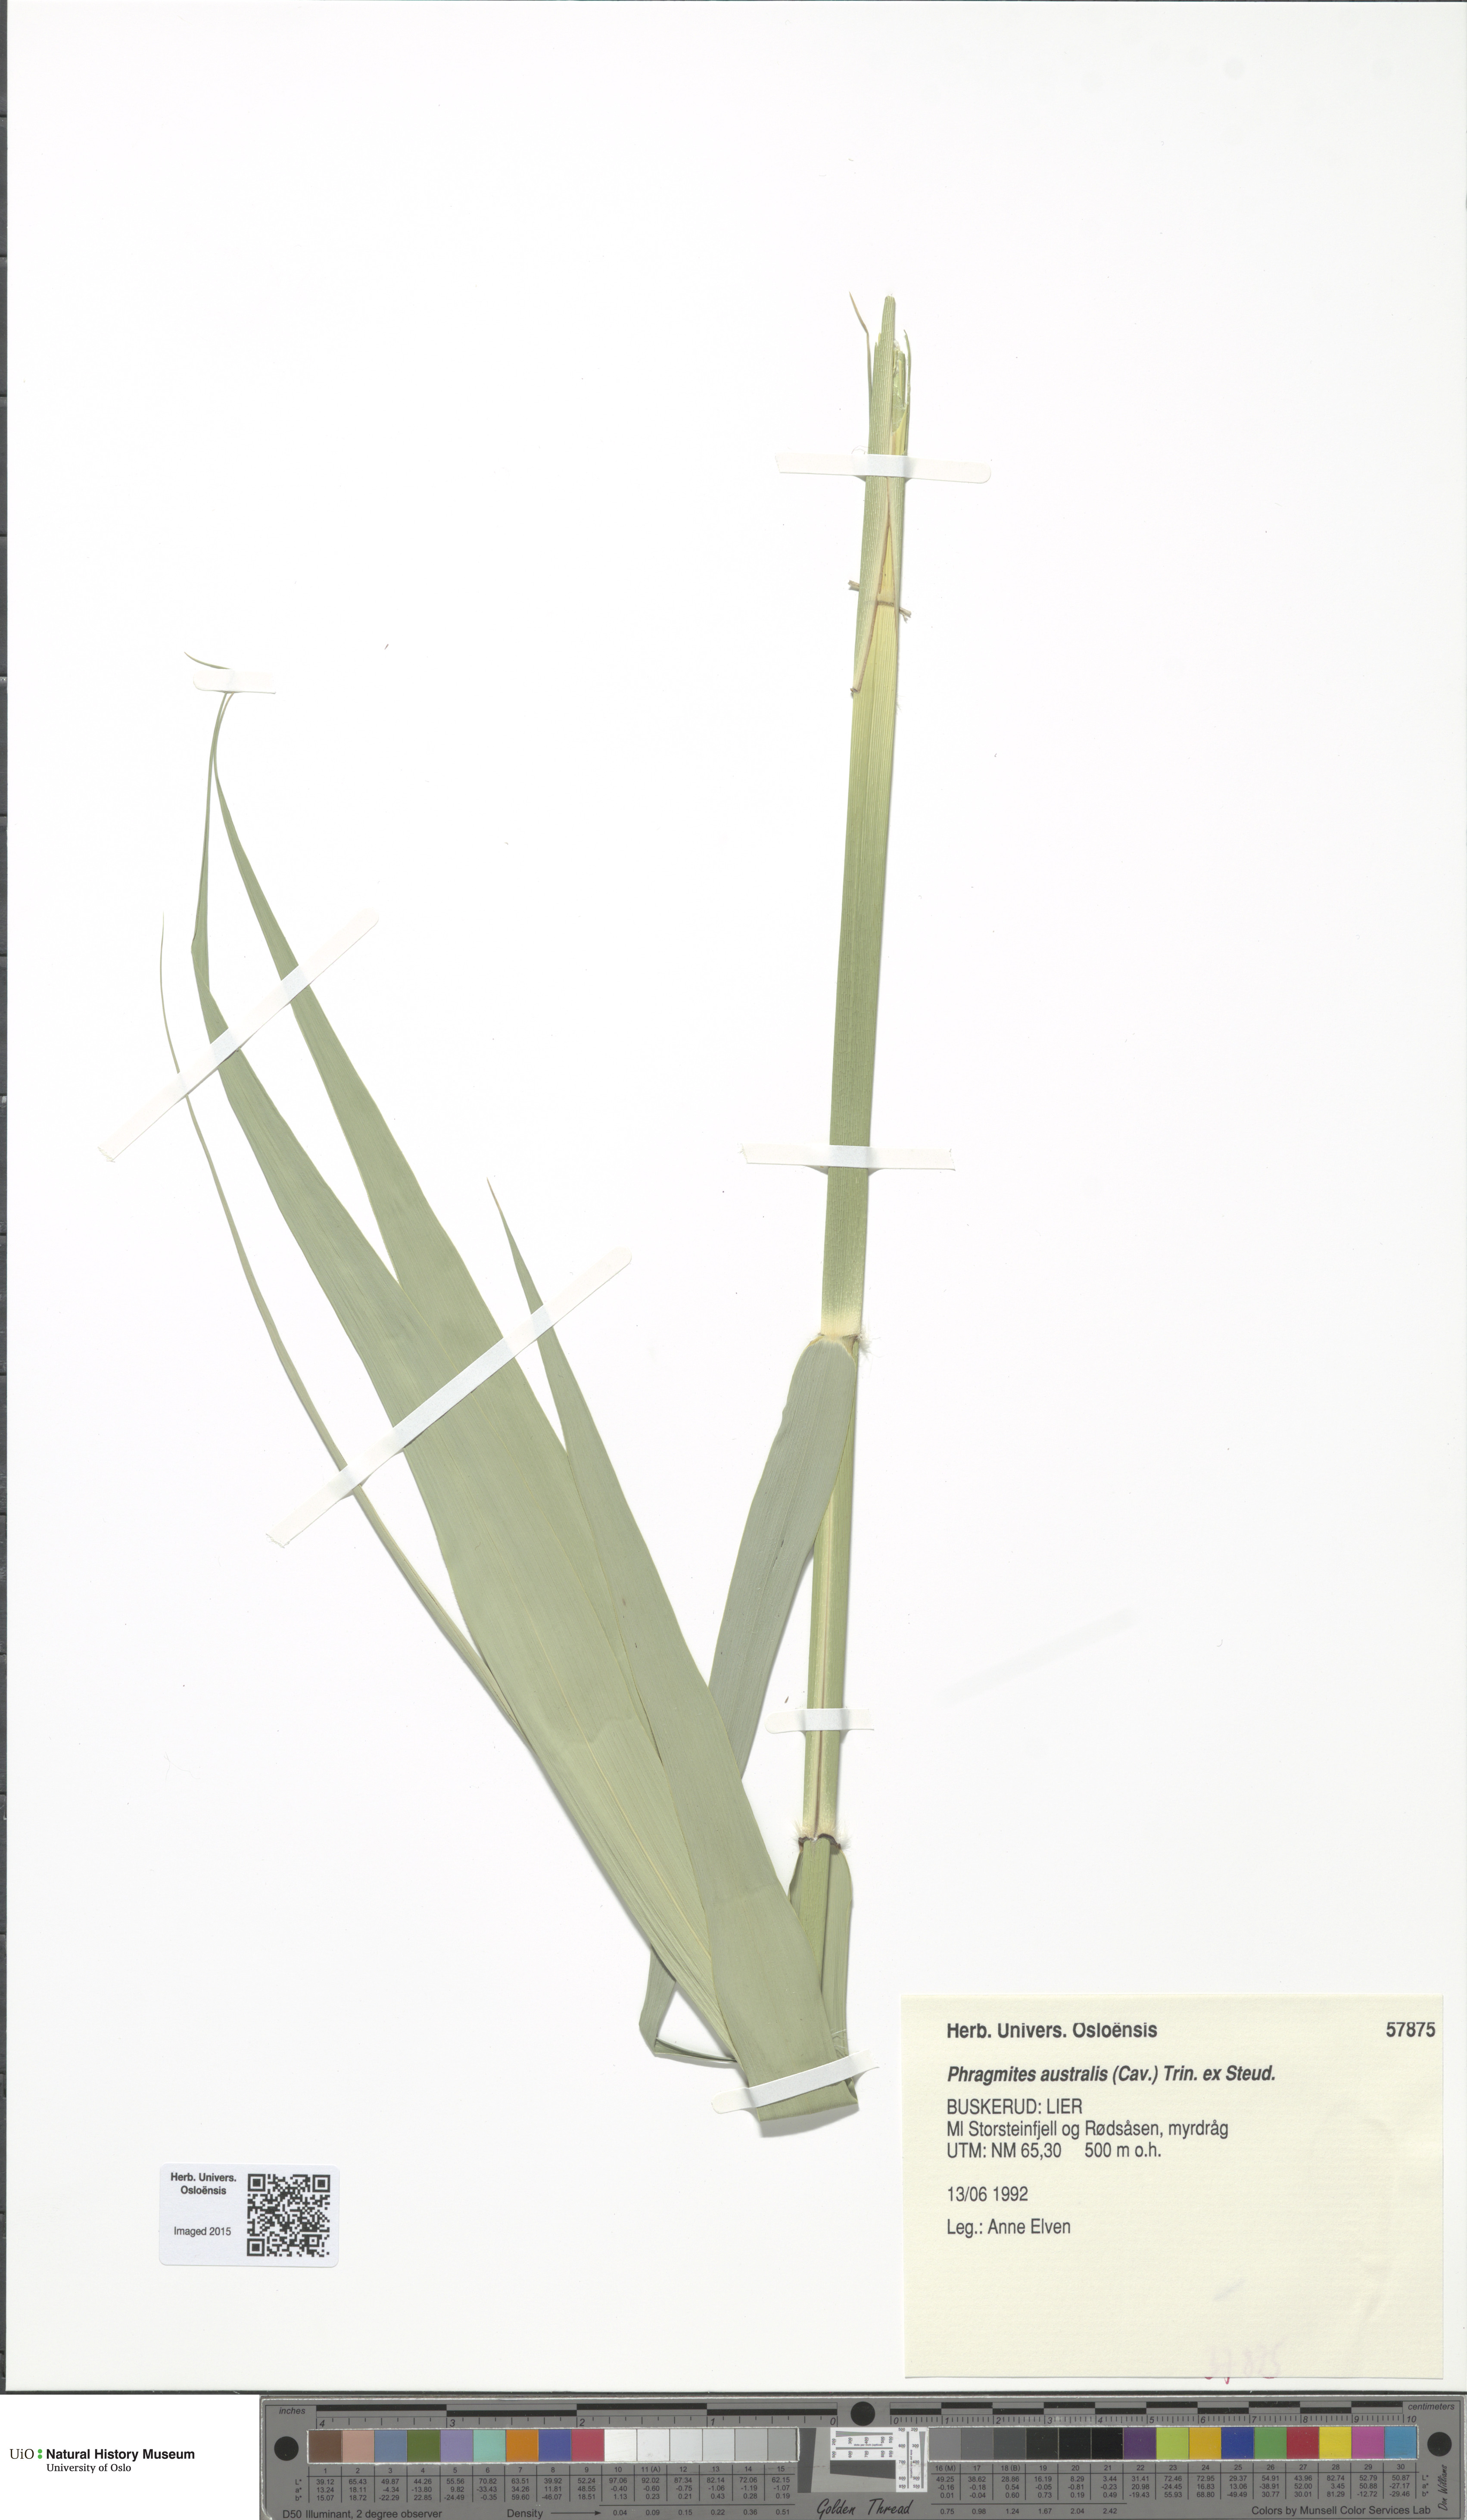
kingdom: Plantae
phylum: Tracheophyta
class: Liliopsida
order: Poales
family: Poaceae
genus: Phragmites
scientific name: Phragmites australis
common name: Common reed
